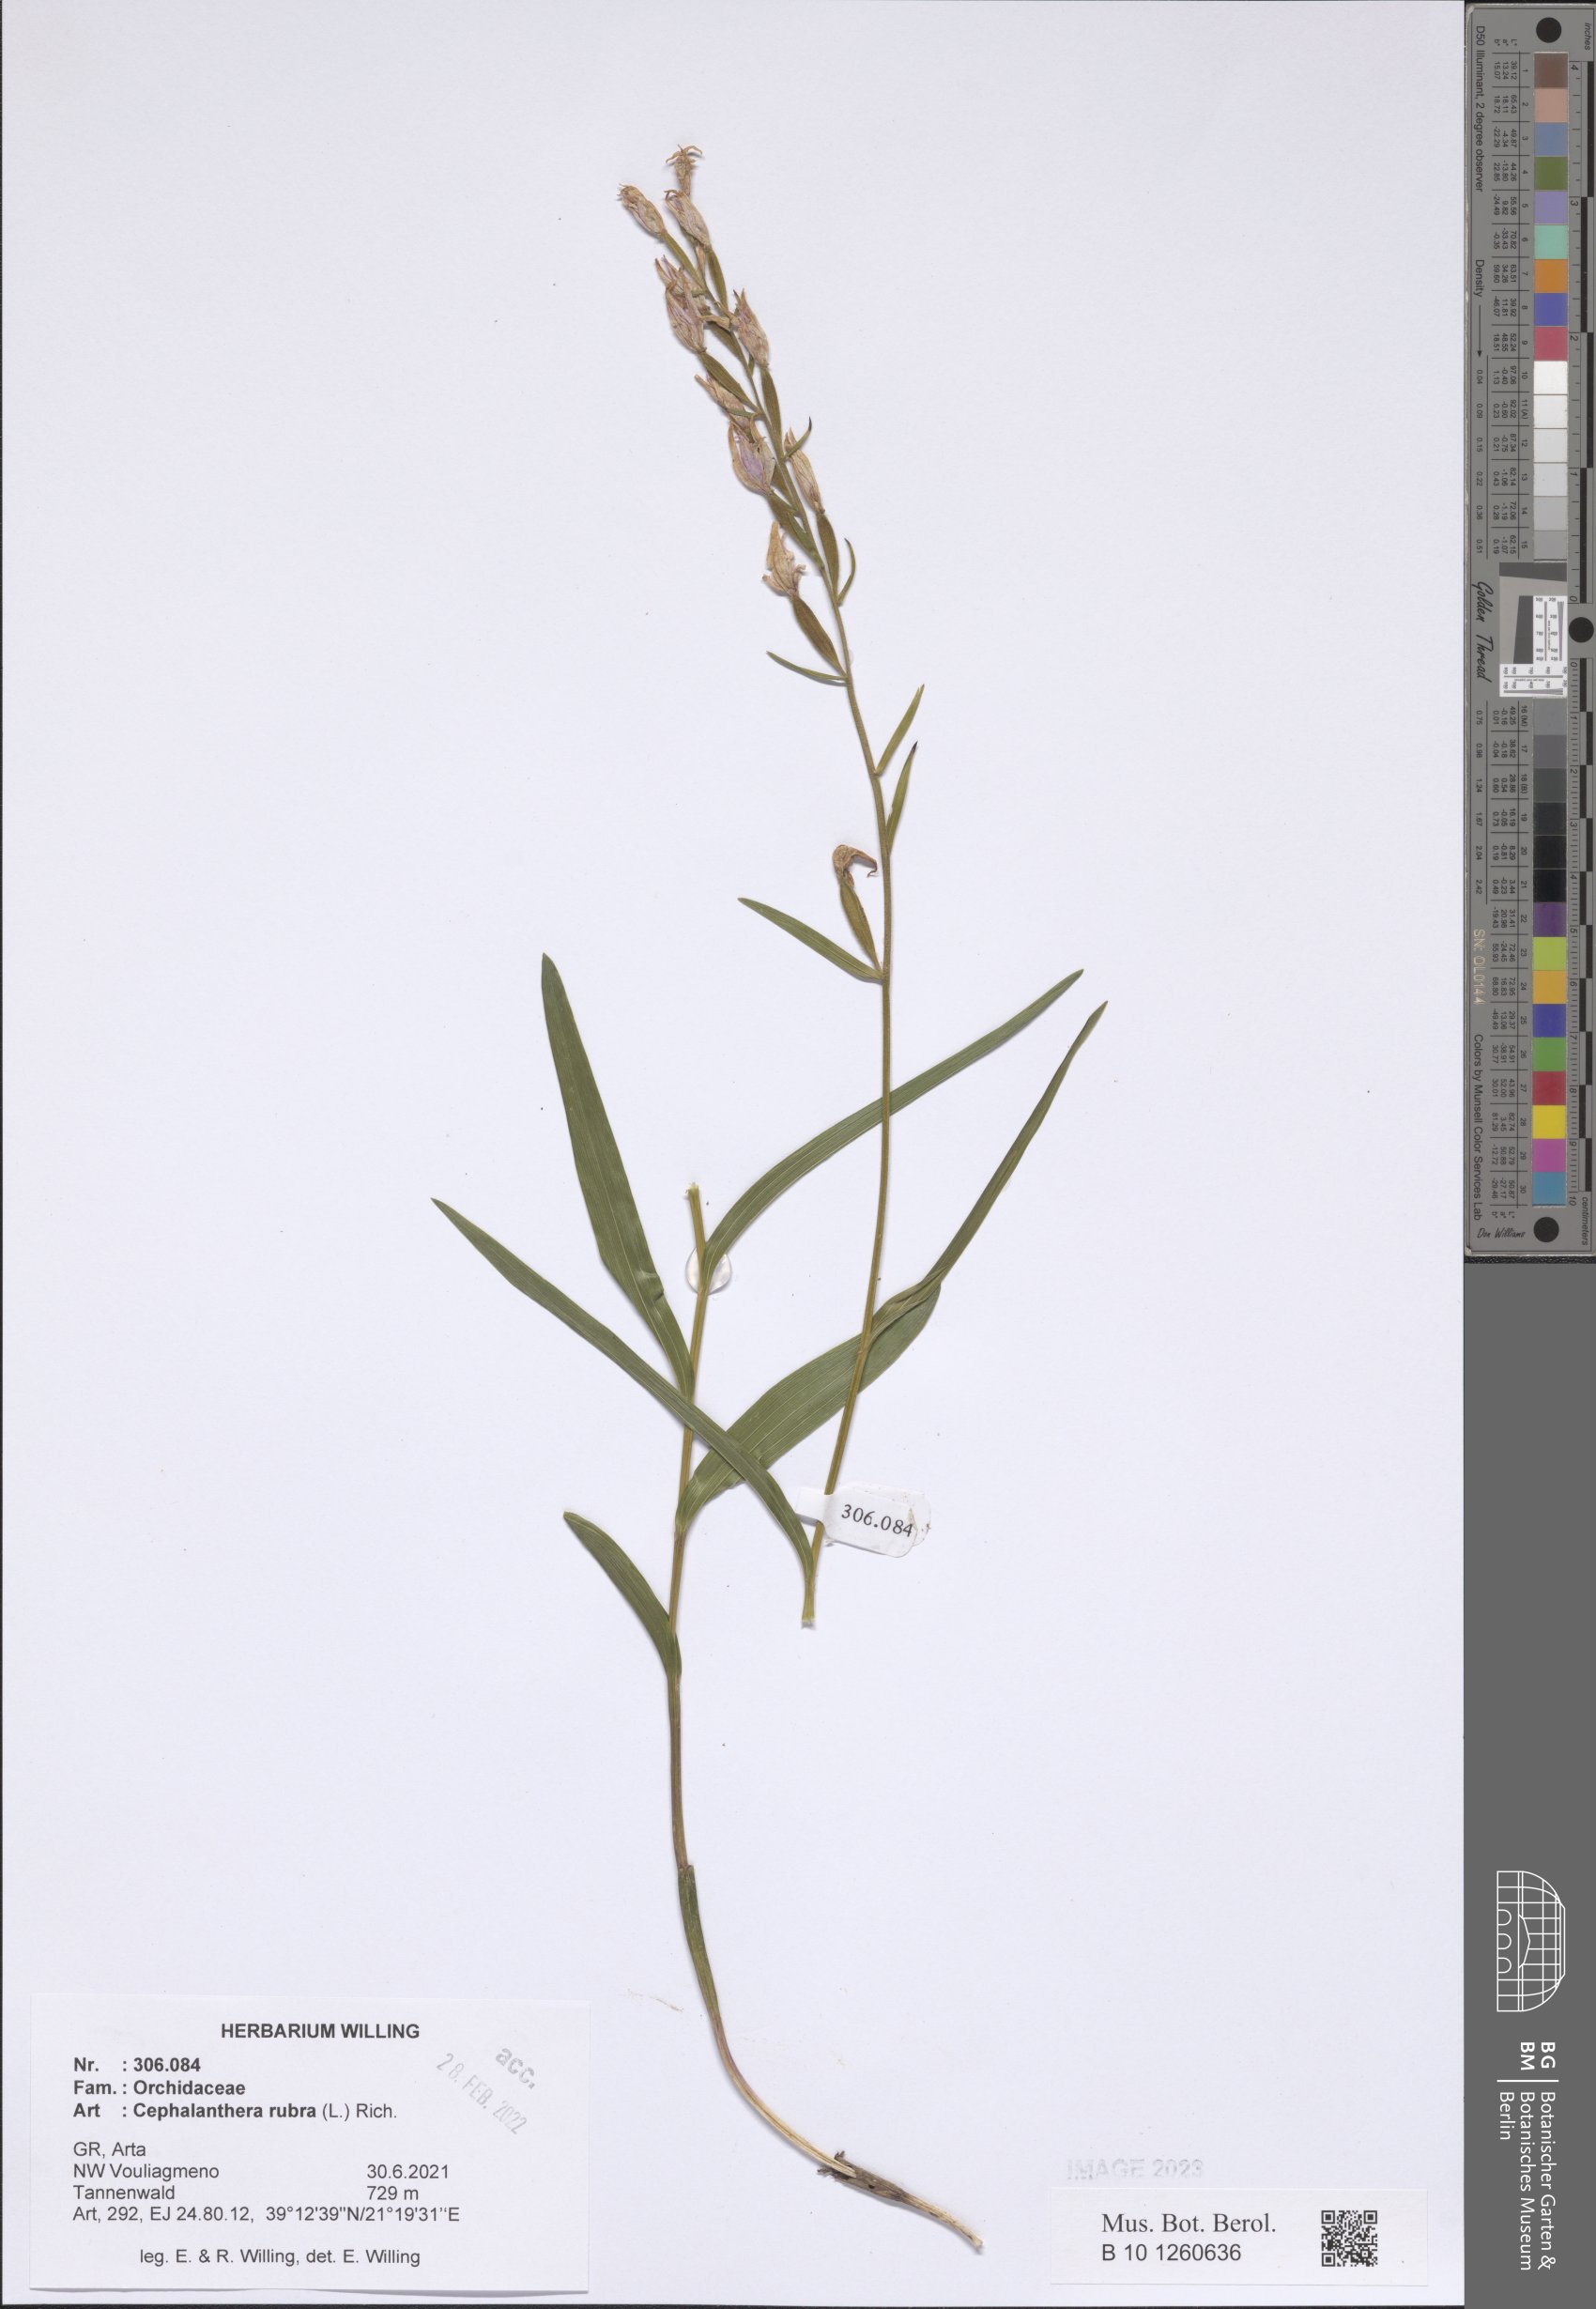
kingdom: Plantae
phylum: Tracheophyta
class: Liliopsida
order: Asparagales
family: Orchidaceae
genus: Cephalanthera
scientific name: Cephalanthera rubra
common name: Red helleborine
